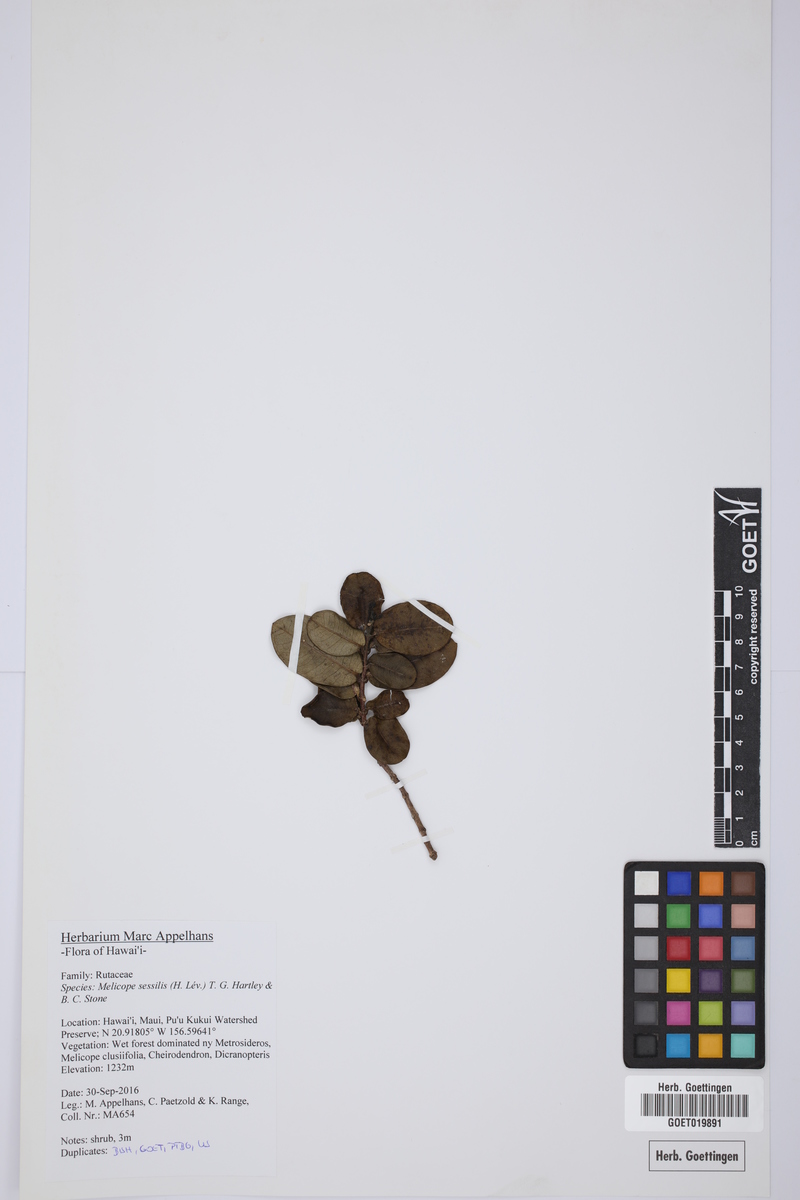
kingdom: Plantae
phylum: Tracheophyta
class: Magnoliopsida
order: Sapindales
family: Rutaceae
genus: Melicope
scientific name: Melicope sessilis
